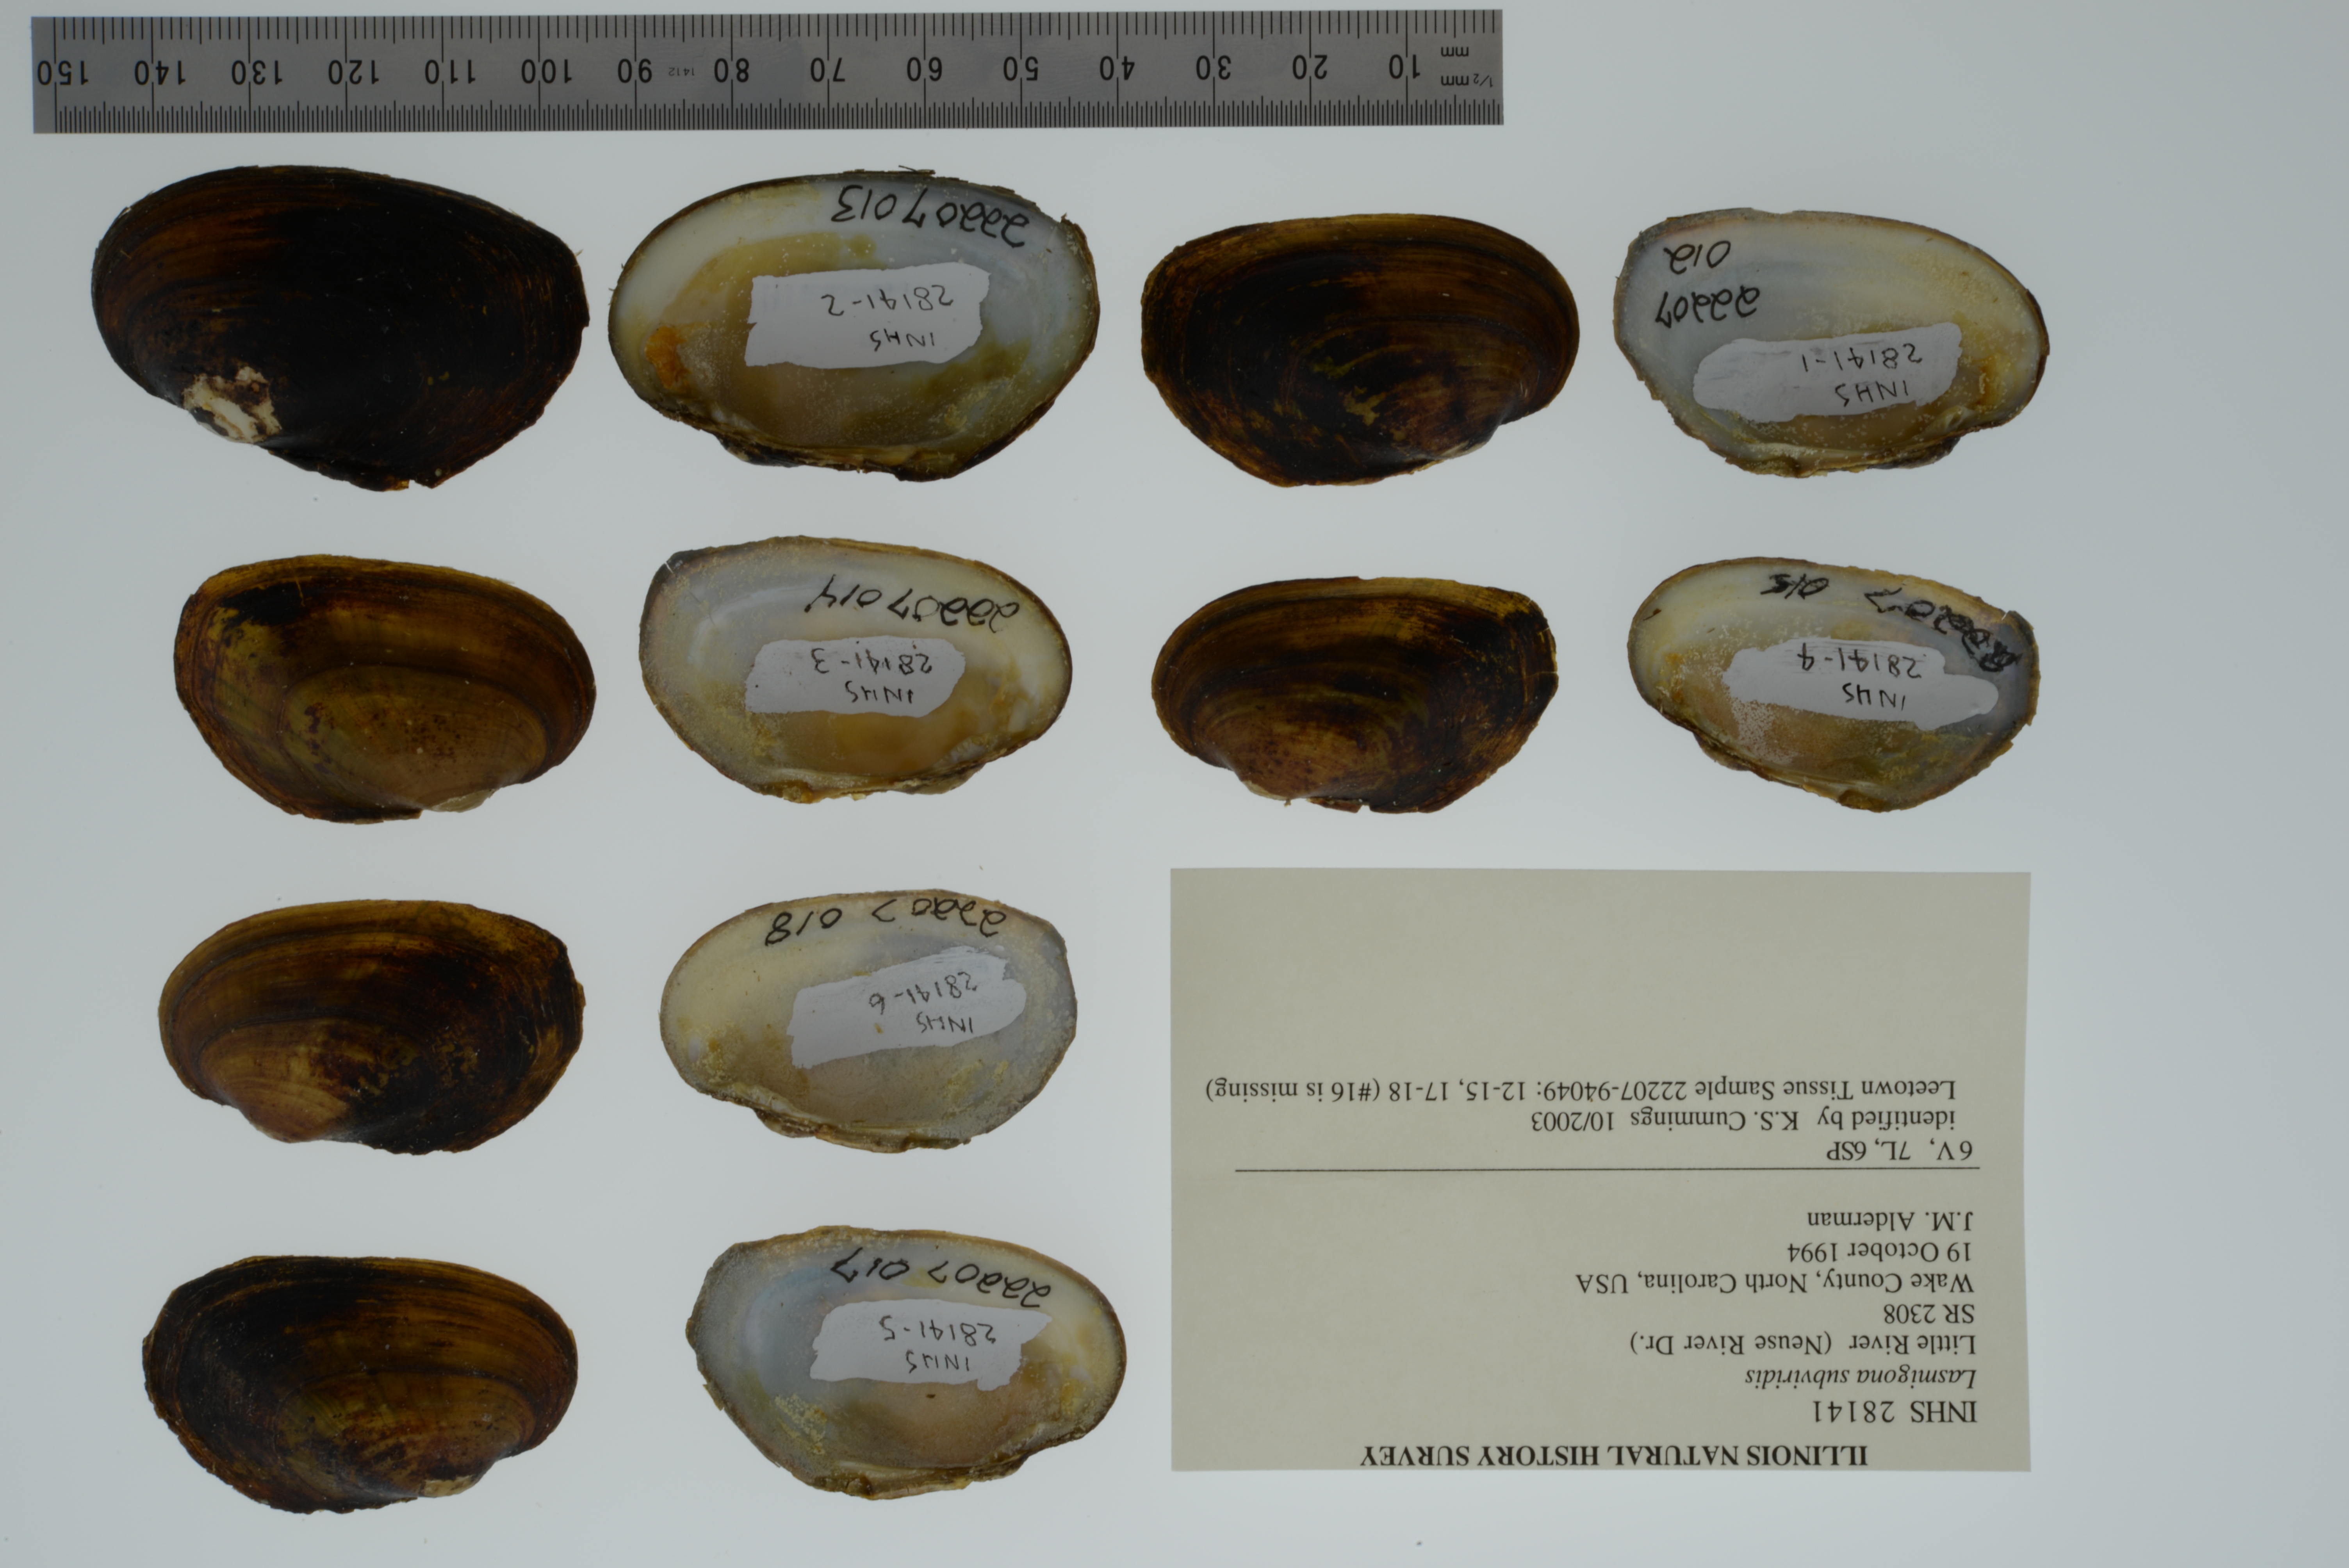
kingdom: Animalia
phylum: Mollusca
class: Bivalvia
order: Unionida
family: Unionidae
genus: Lasmigona
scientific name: Lasmigona subviridis
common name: Green floater
